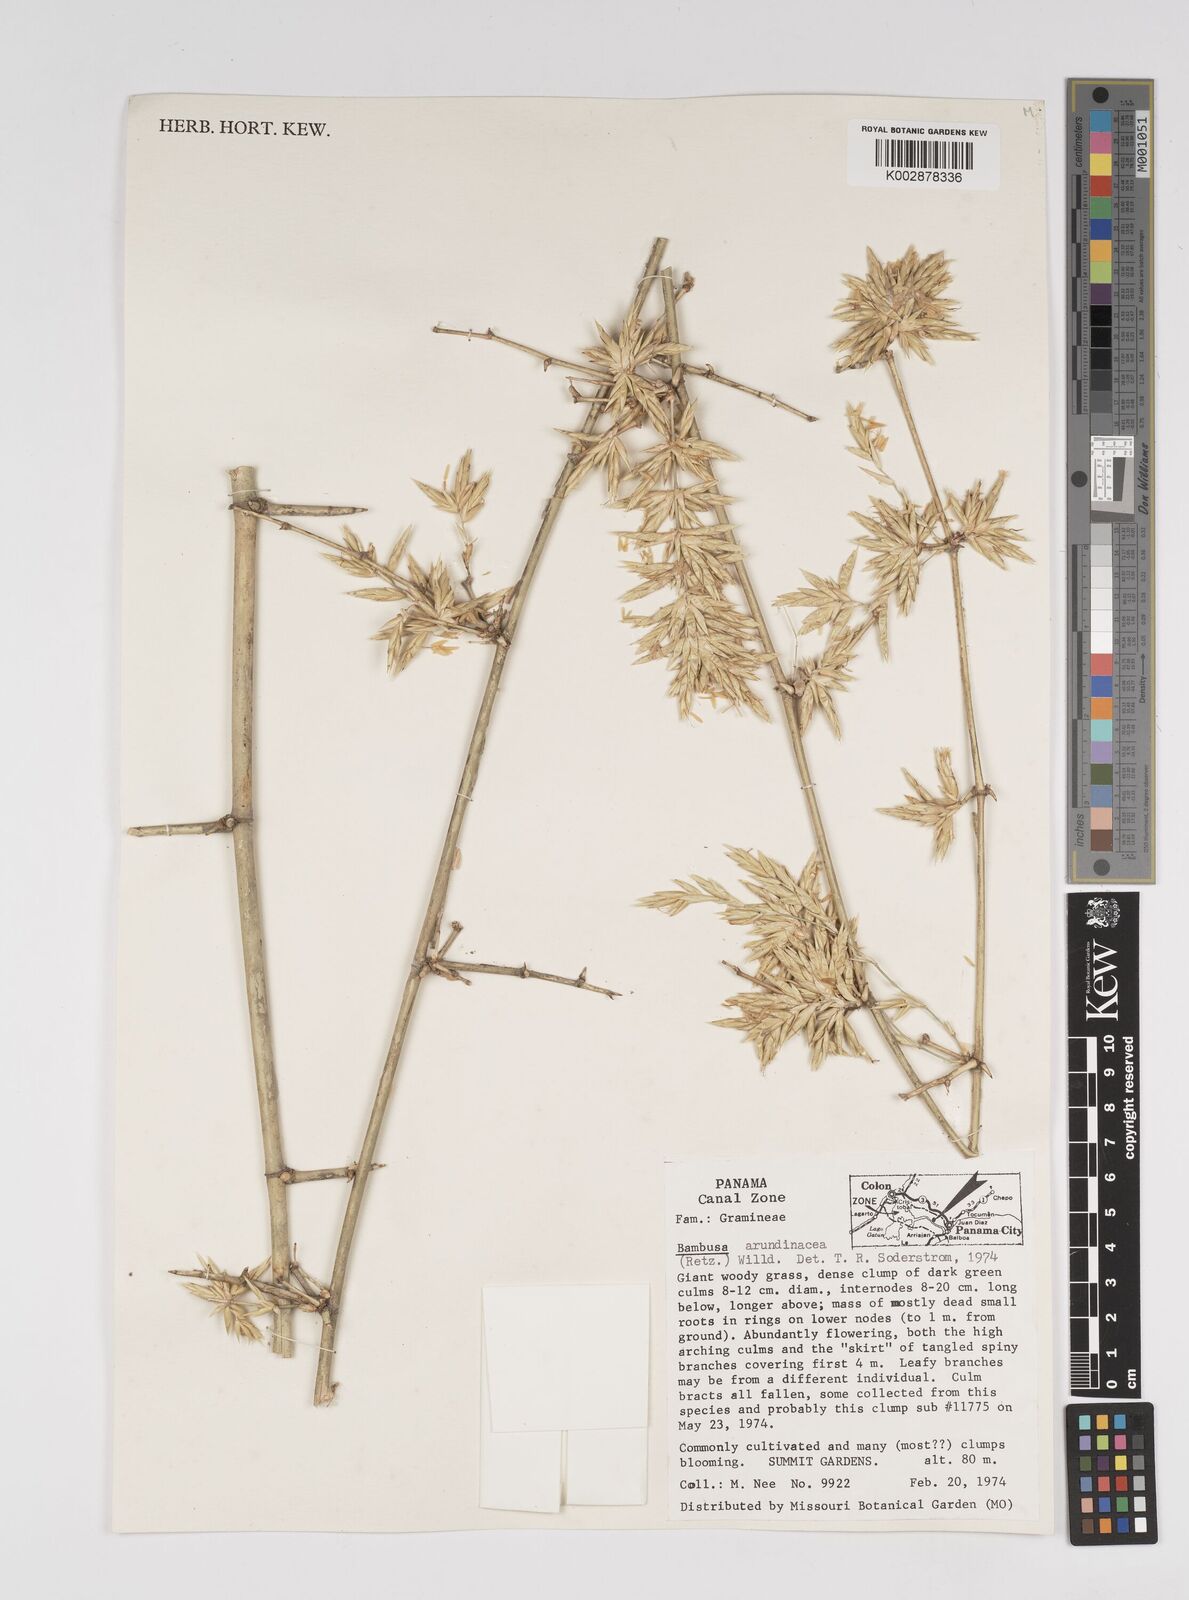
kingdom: Plantae
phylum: Tracheophyta
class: Liliopsida
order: Poales
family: Poaceae
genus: Bambusa
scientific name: Bambusa bambos
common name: Indian thorny bamboo
